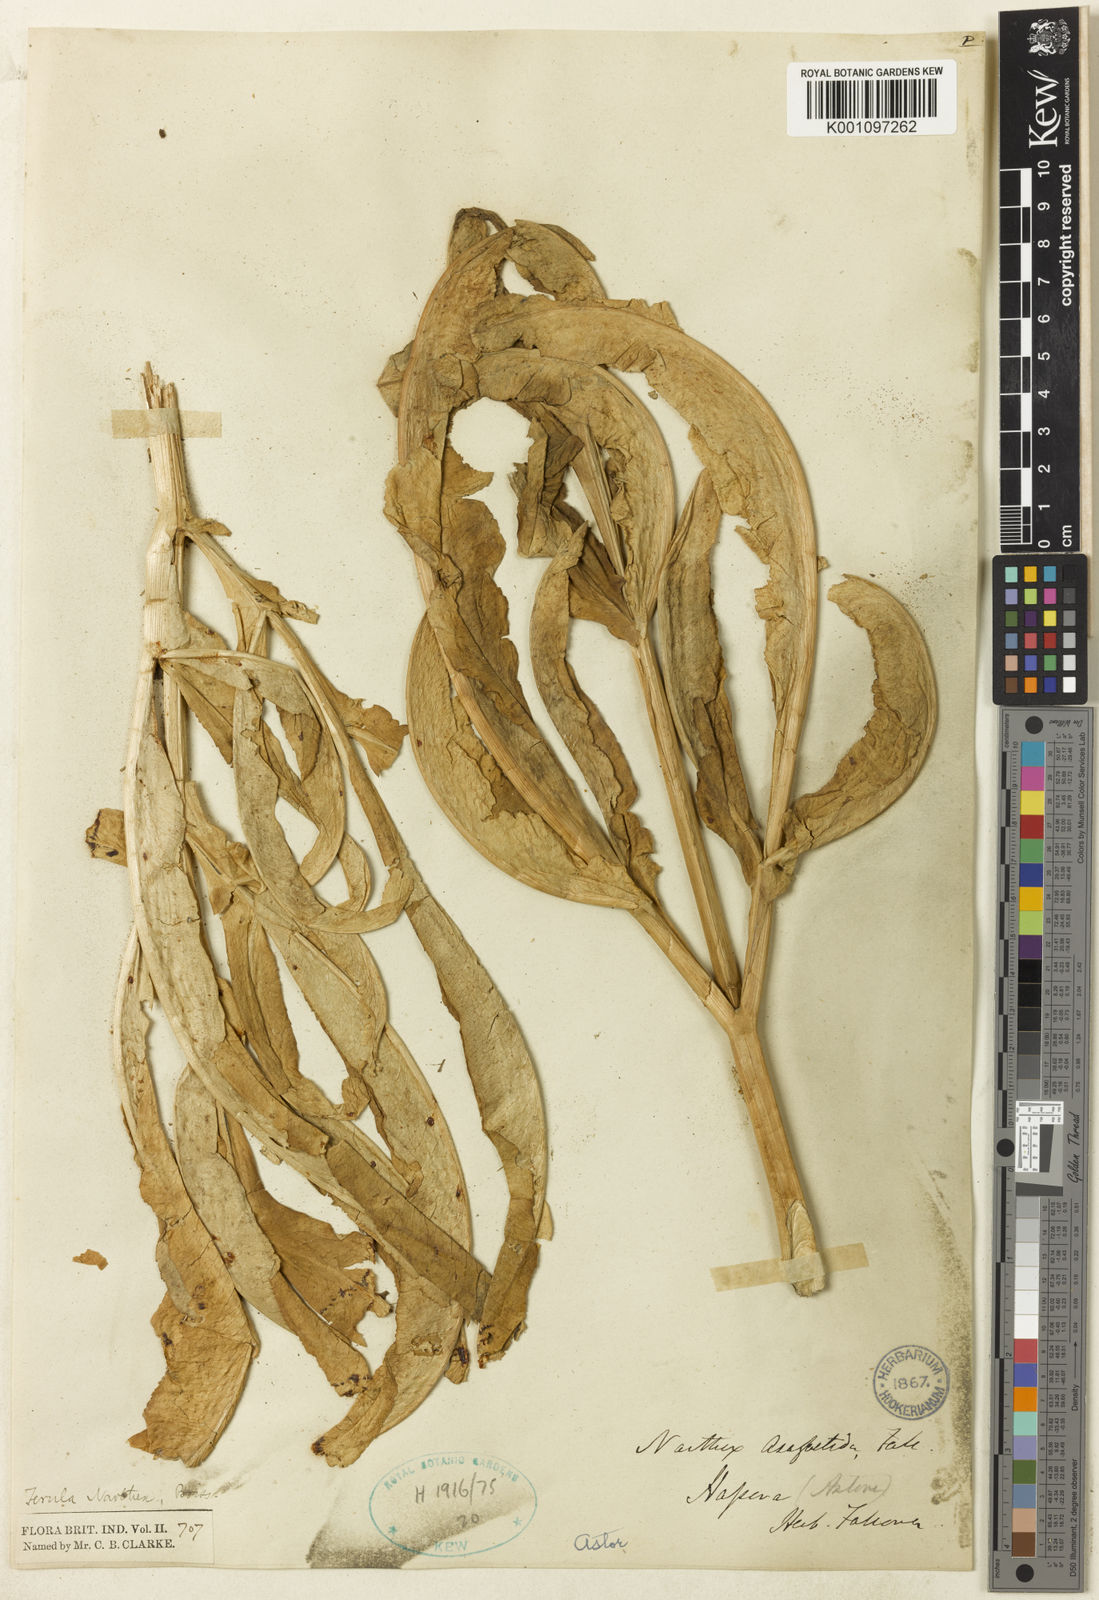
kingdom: Plantae
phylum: Tracheophyta
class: Magnoliopsida
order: Apiales
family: Apiaceae
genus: Ferula
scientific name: Ferula narthex
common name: Hing asafetida
